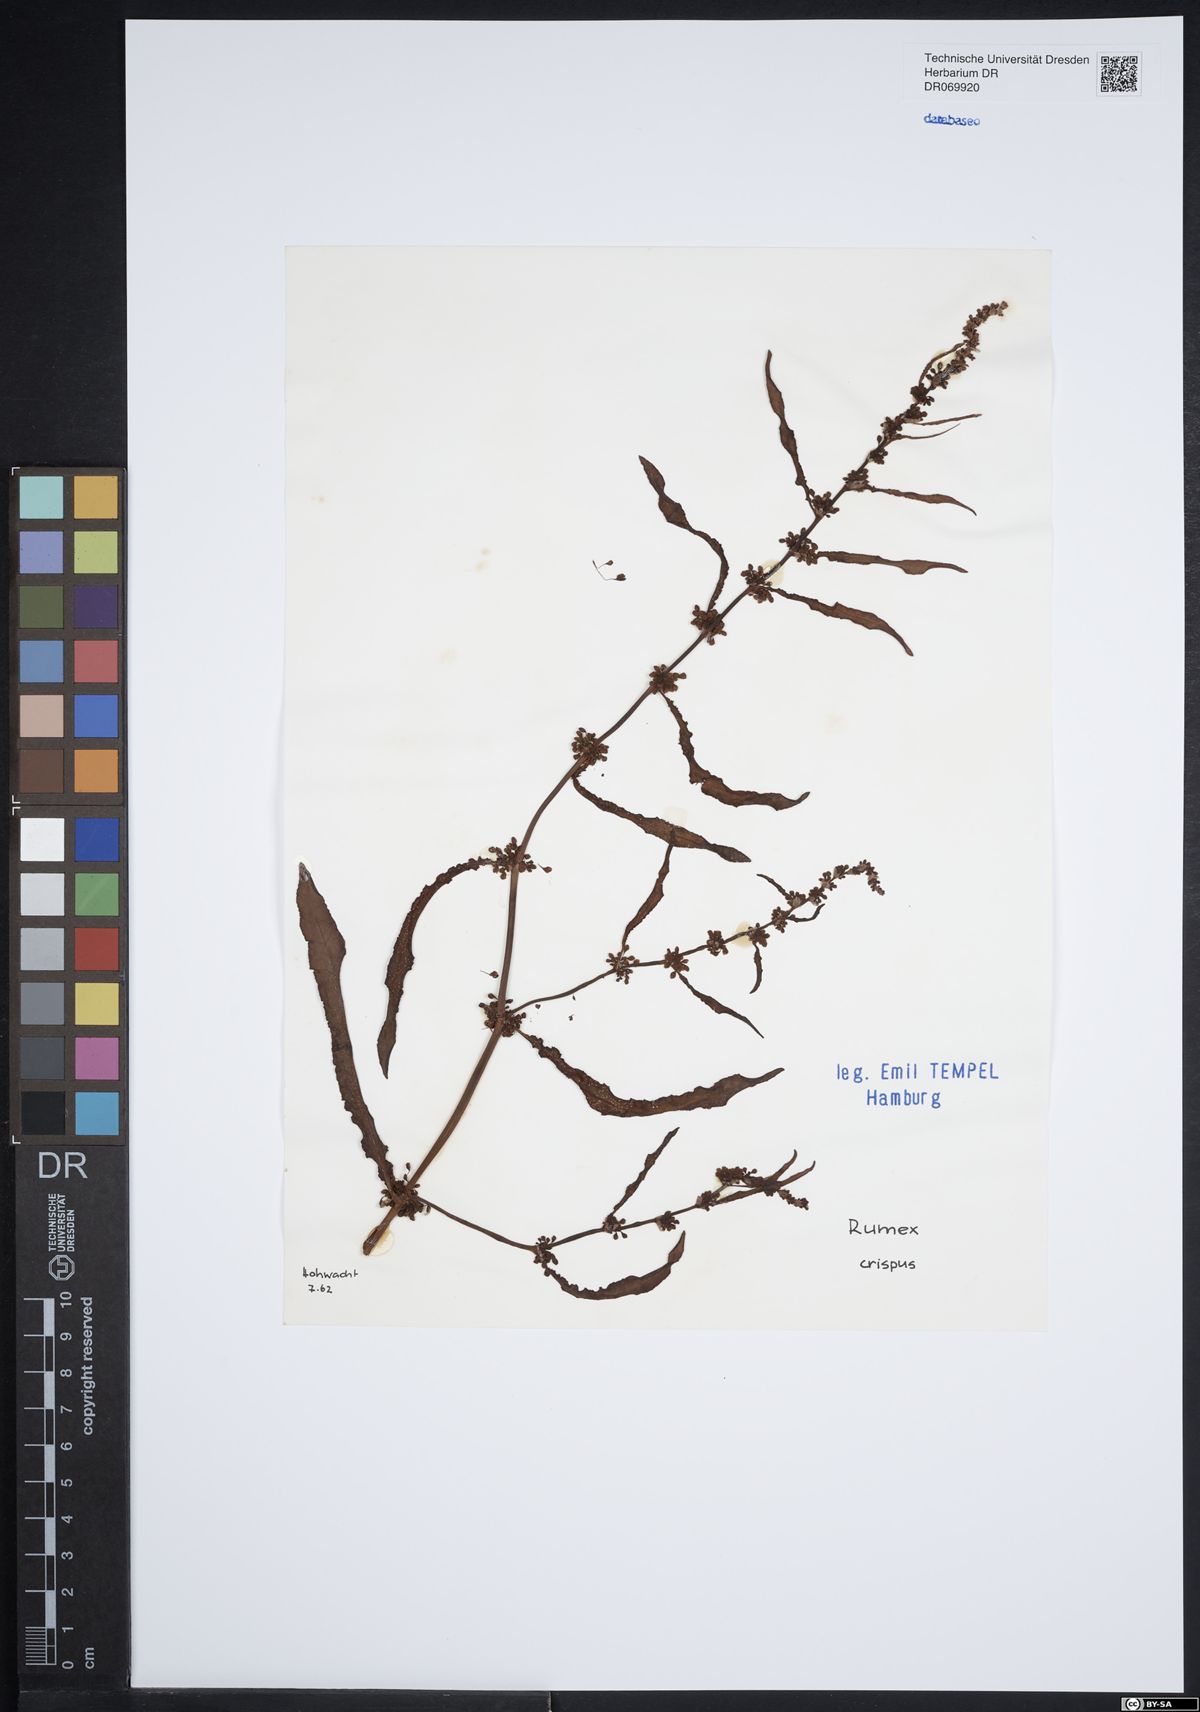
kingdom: Plantae
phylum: Tracheophyta
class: Magnoliopsida
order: Caryophyllales
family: Polygonaceae
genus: Rumex
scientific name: Rumex crispus
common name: Curled dock
